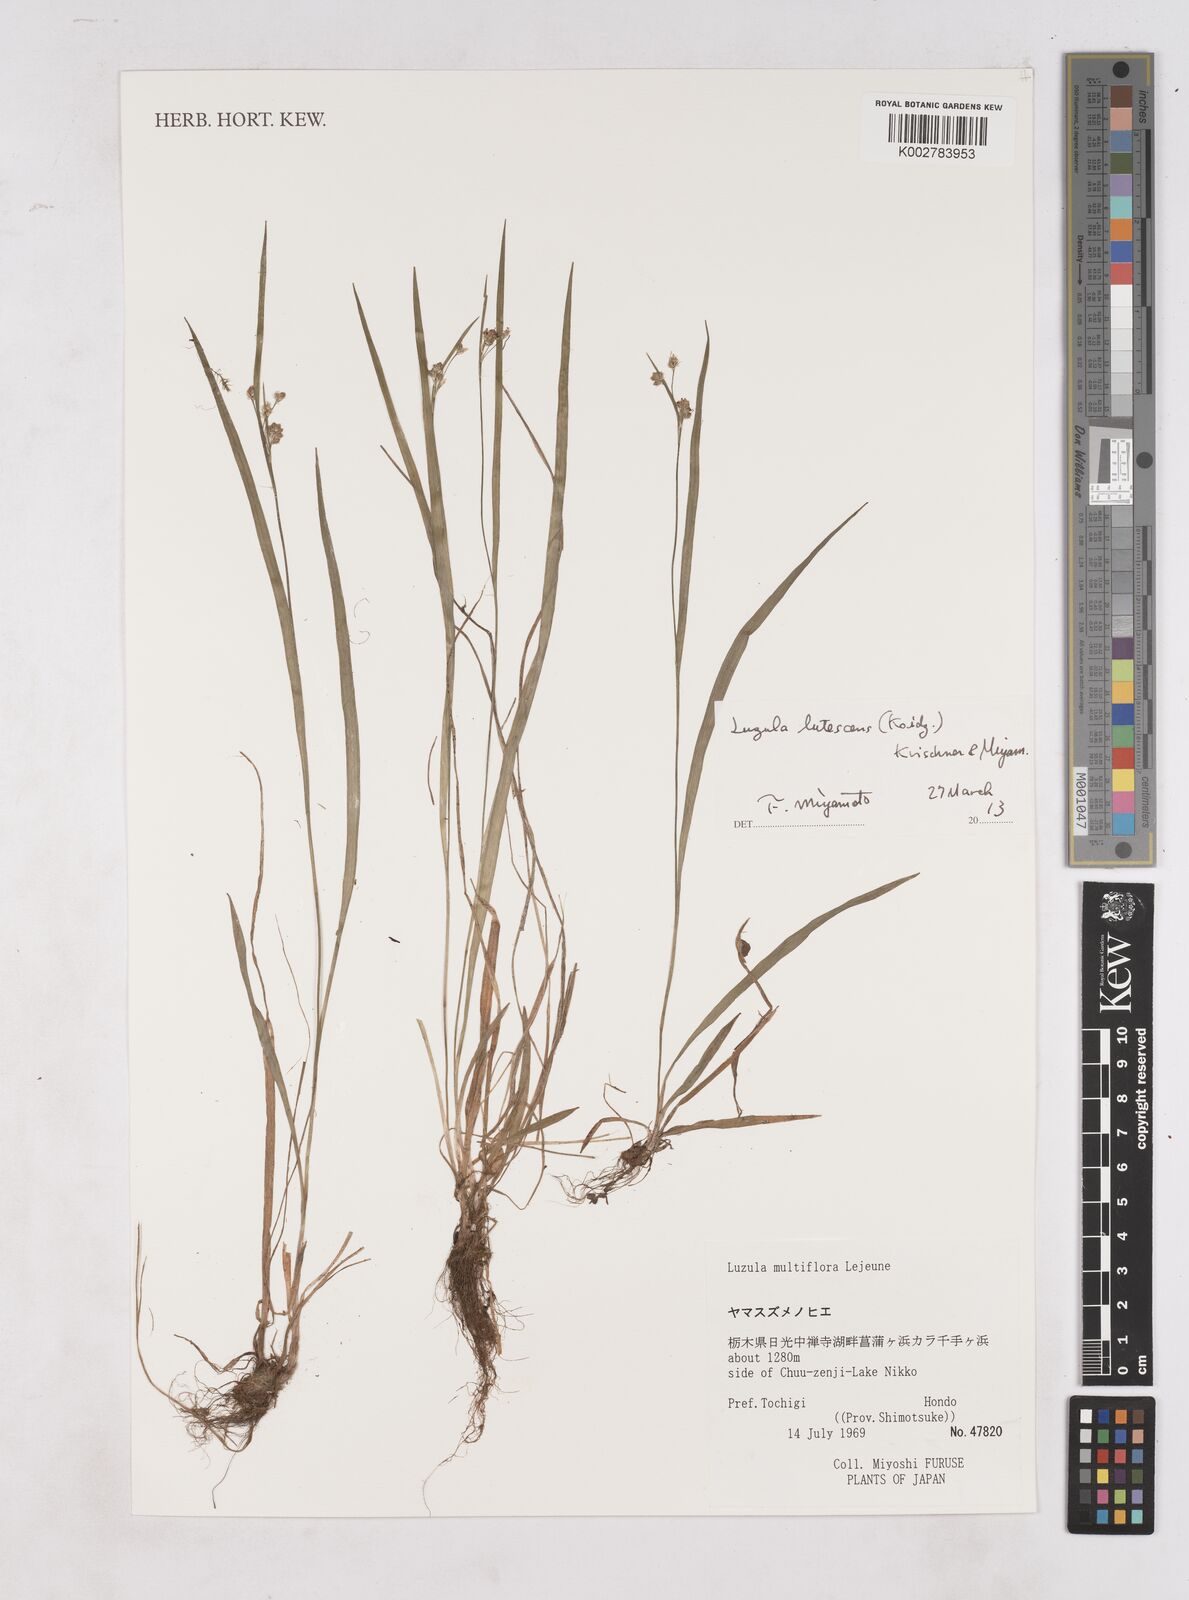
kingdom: Plantae
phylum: Tracheophyta
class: Liliopsida
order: Poales
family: Juncaceae
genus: Luzula
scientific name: Luzula campestris
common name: Field wood-rush
